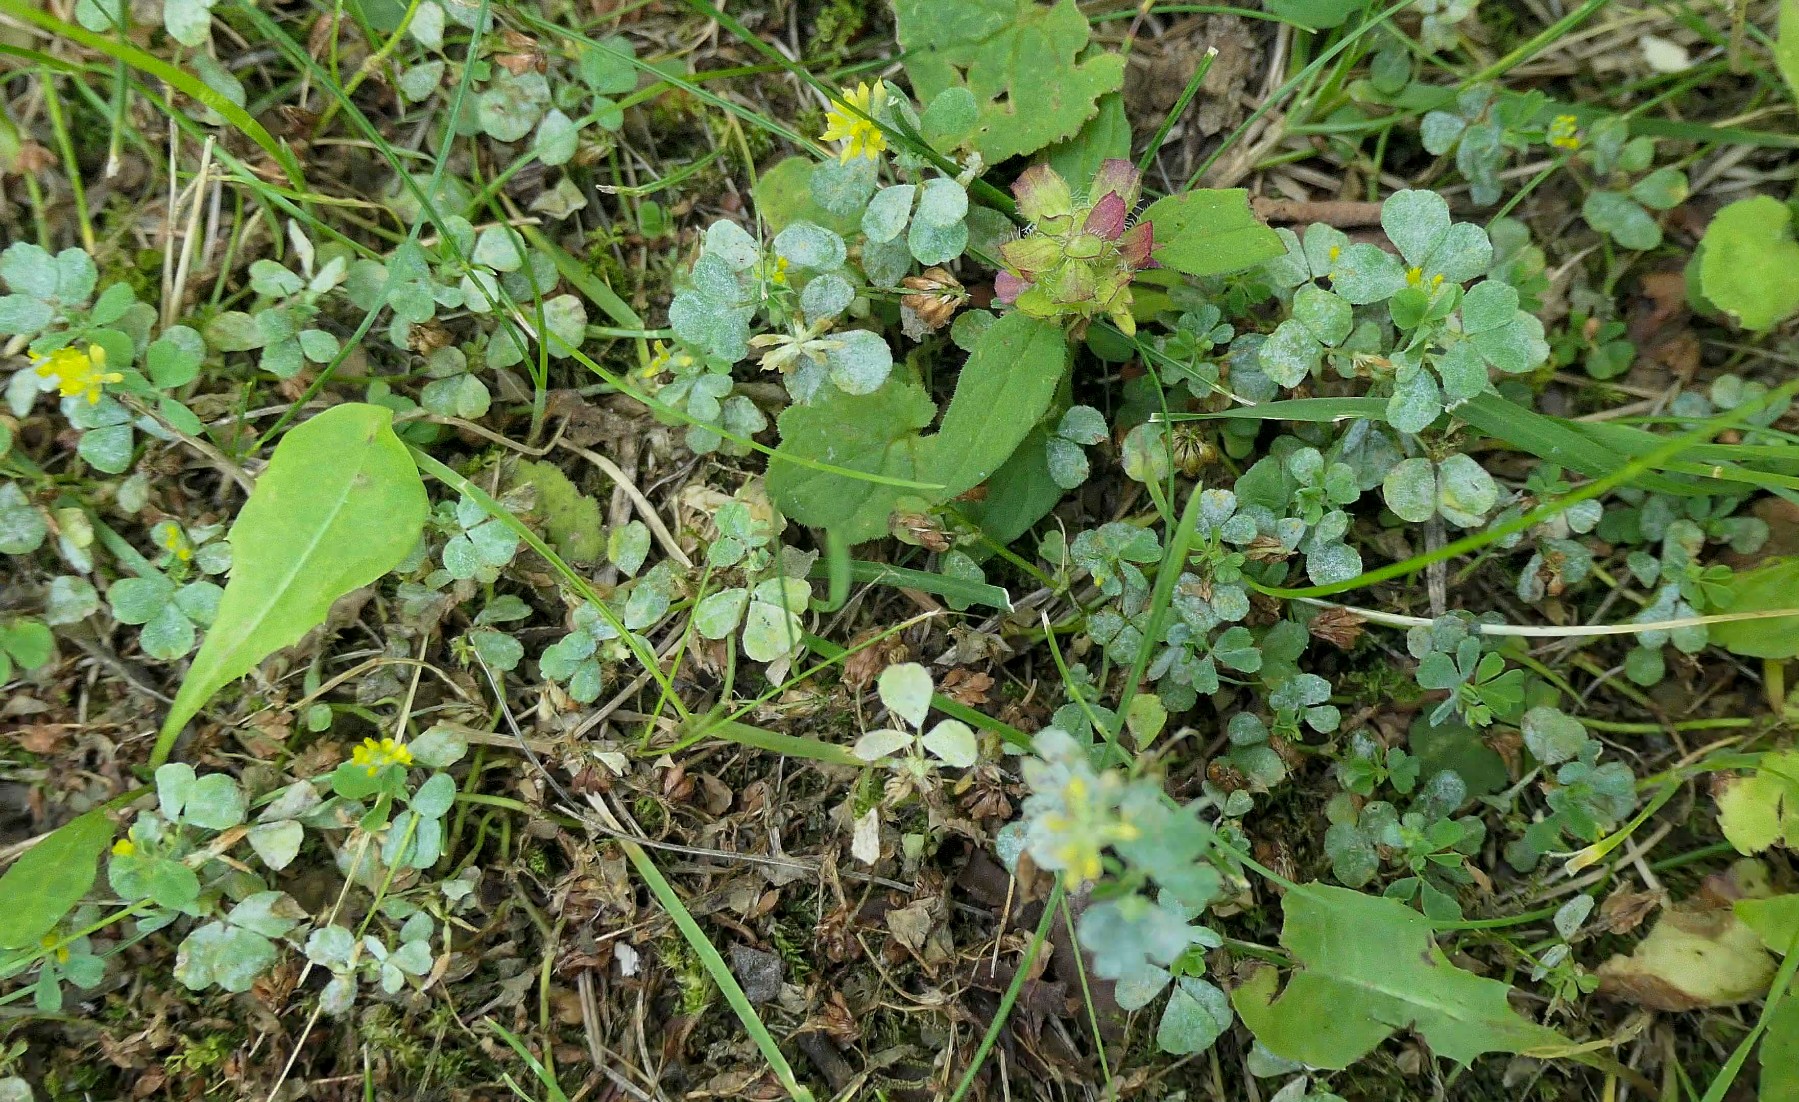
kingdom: Fungi
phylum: Ascomycota
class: Leotiomycetes
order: Helotiales
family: Erysiphaceae
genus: Erysiphe
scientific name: Erysiphe trifoliorum
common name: kløver-meldug
